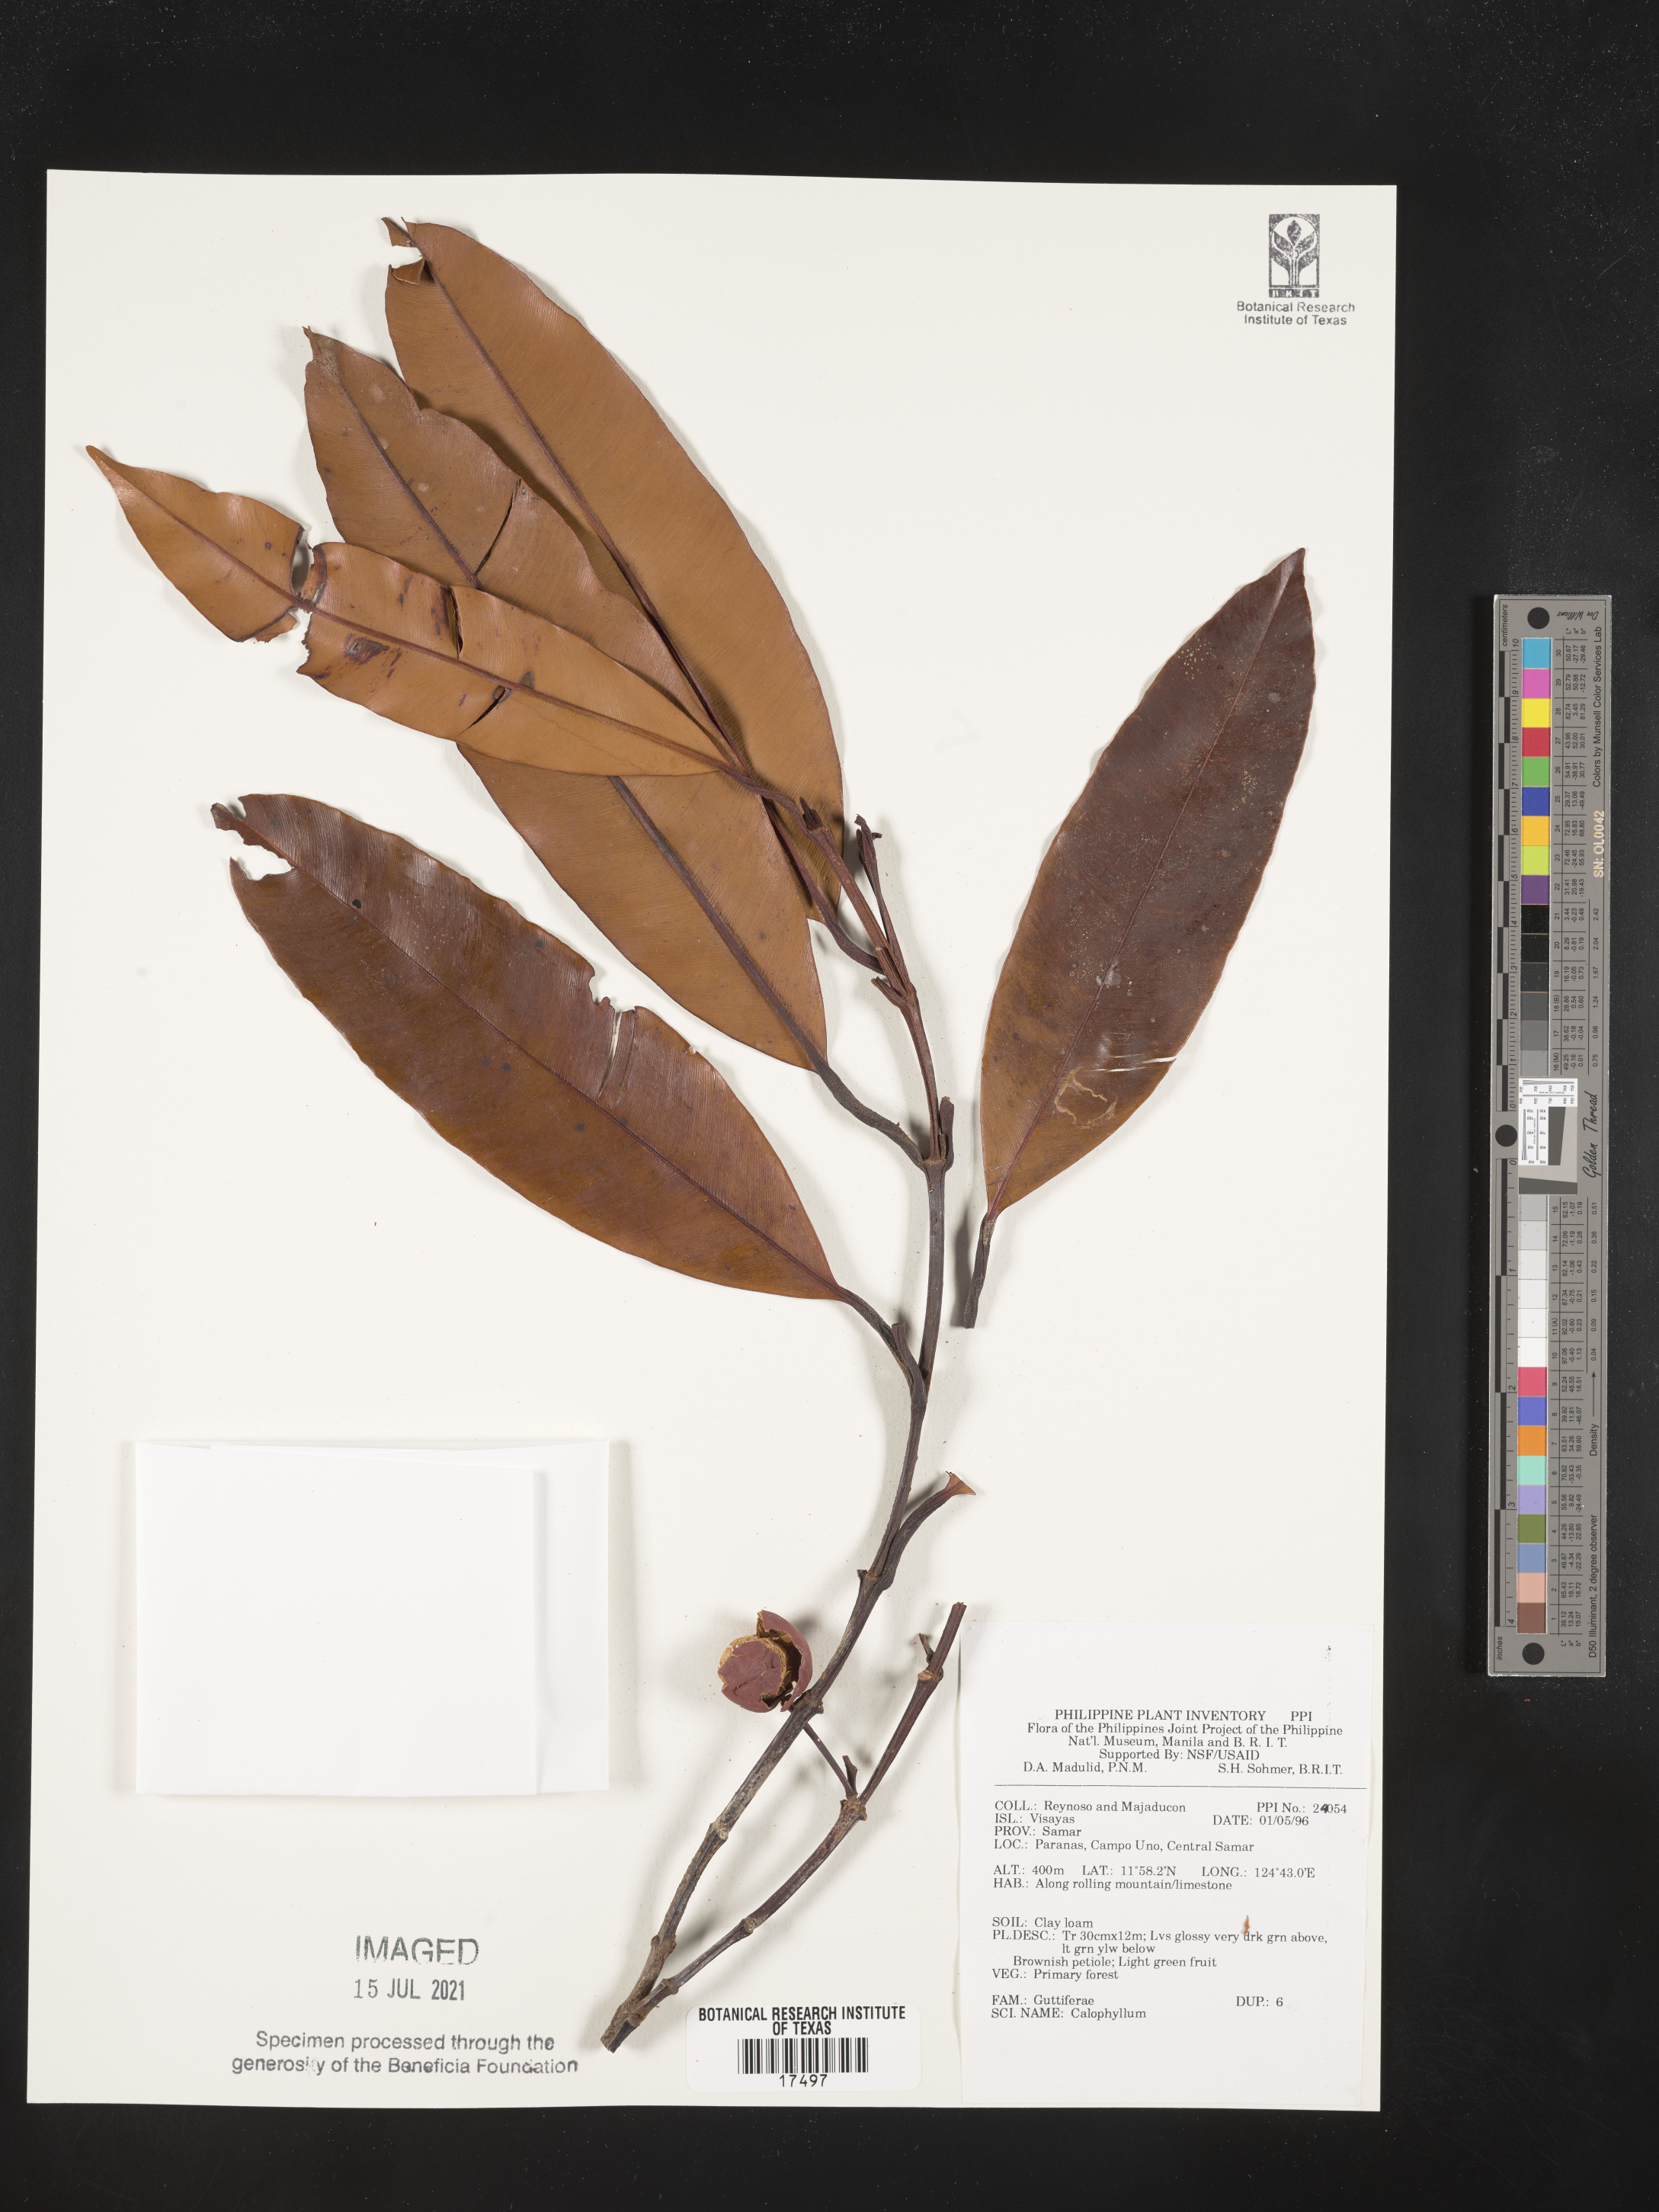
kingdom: Plantae
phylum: Tracheophyta
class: Magnoliopsida
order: Malpighiales
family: Calophyllaceae
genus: Calophyllum
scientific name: Calophyllum
